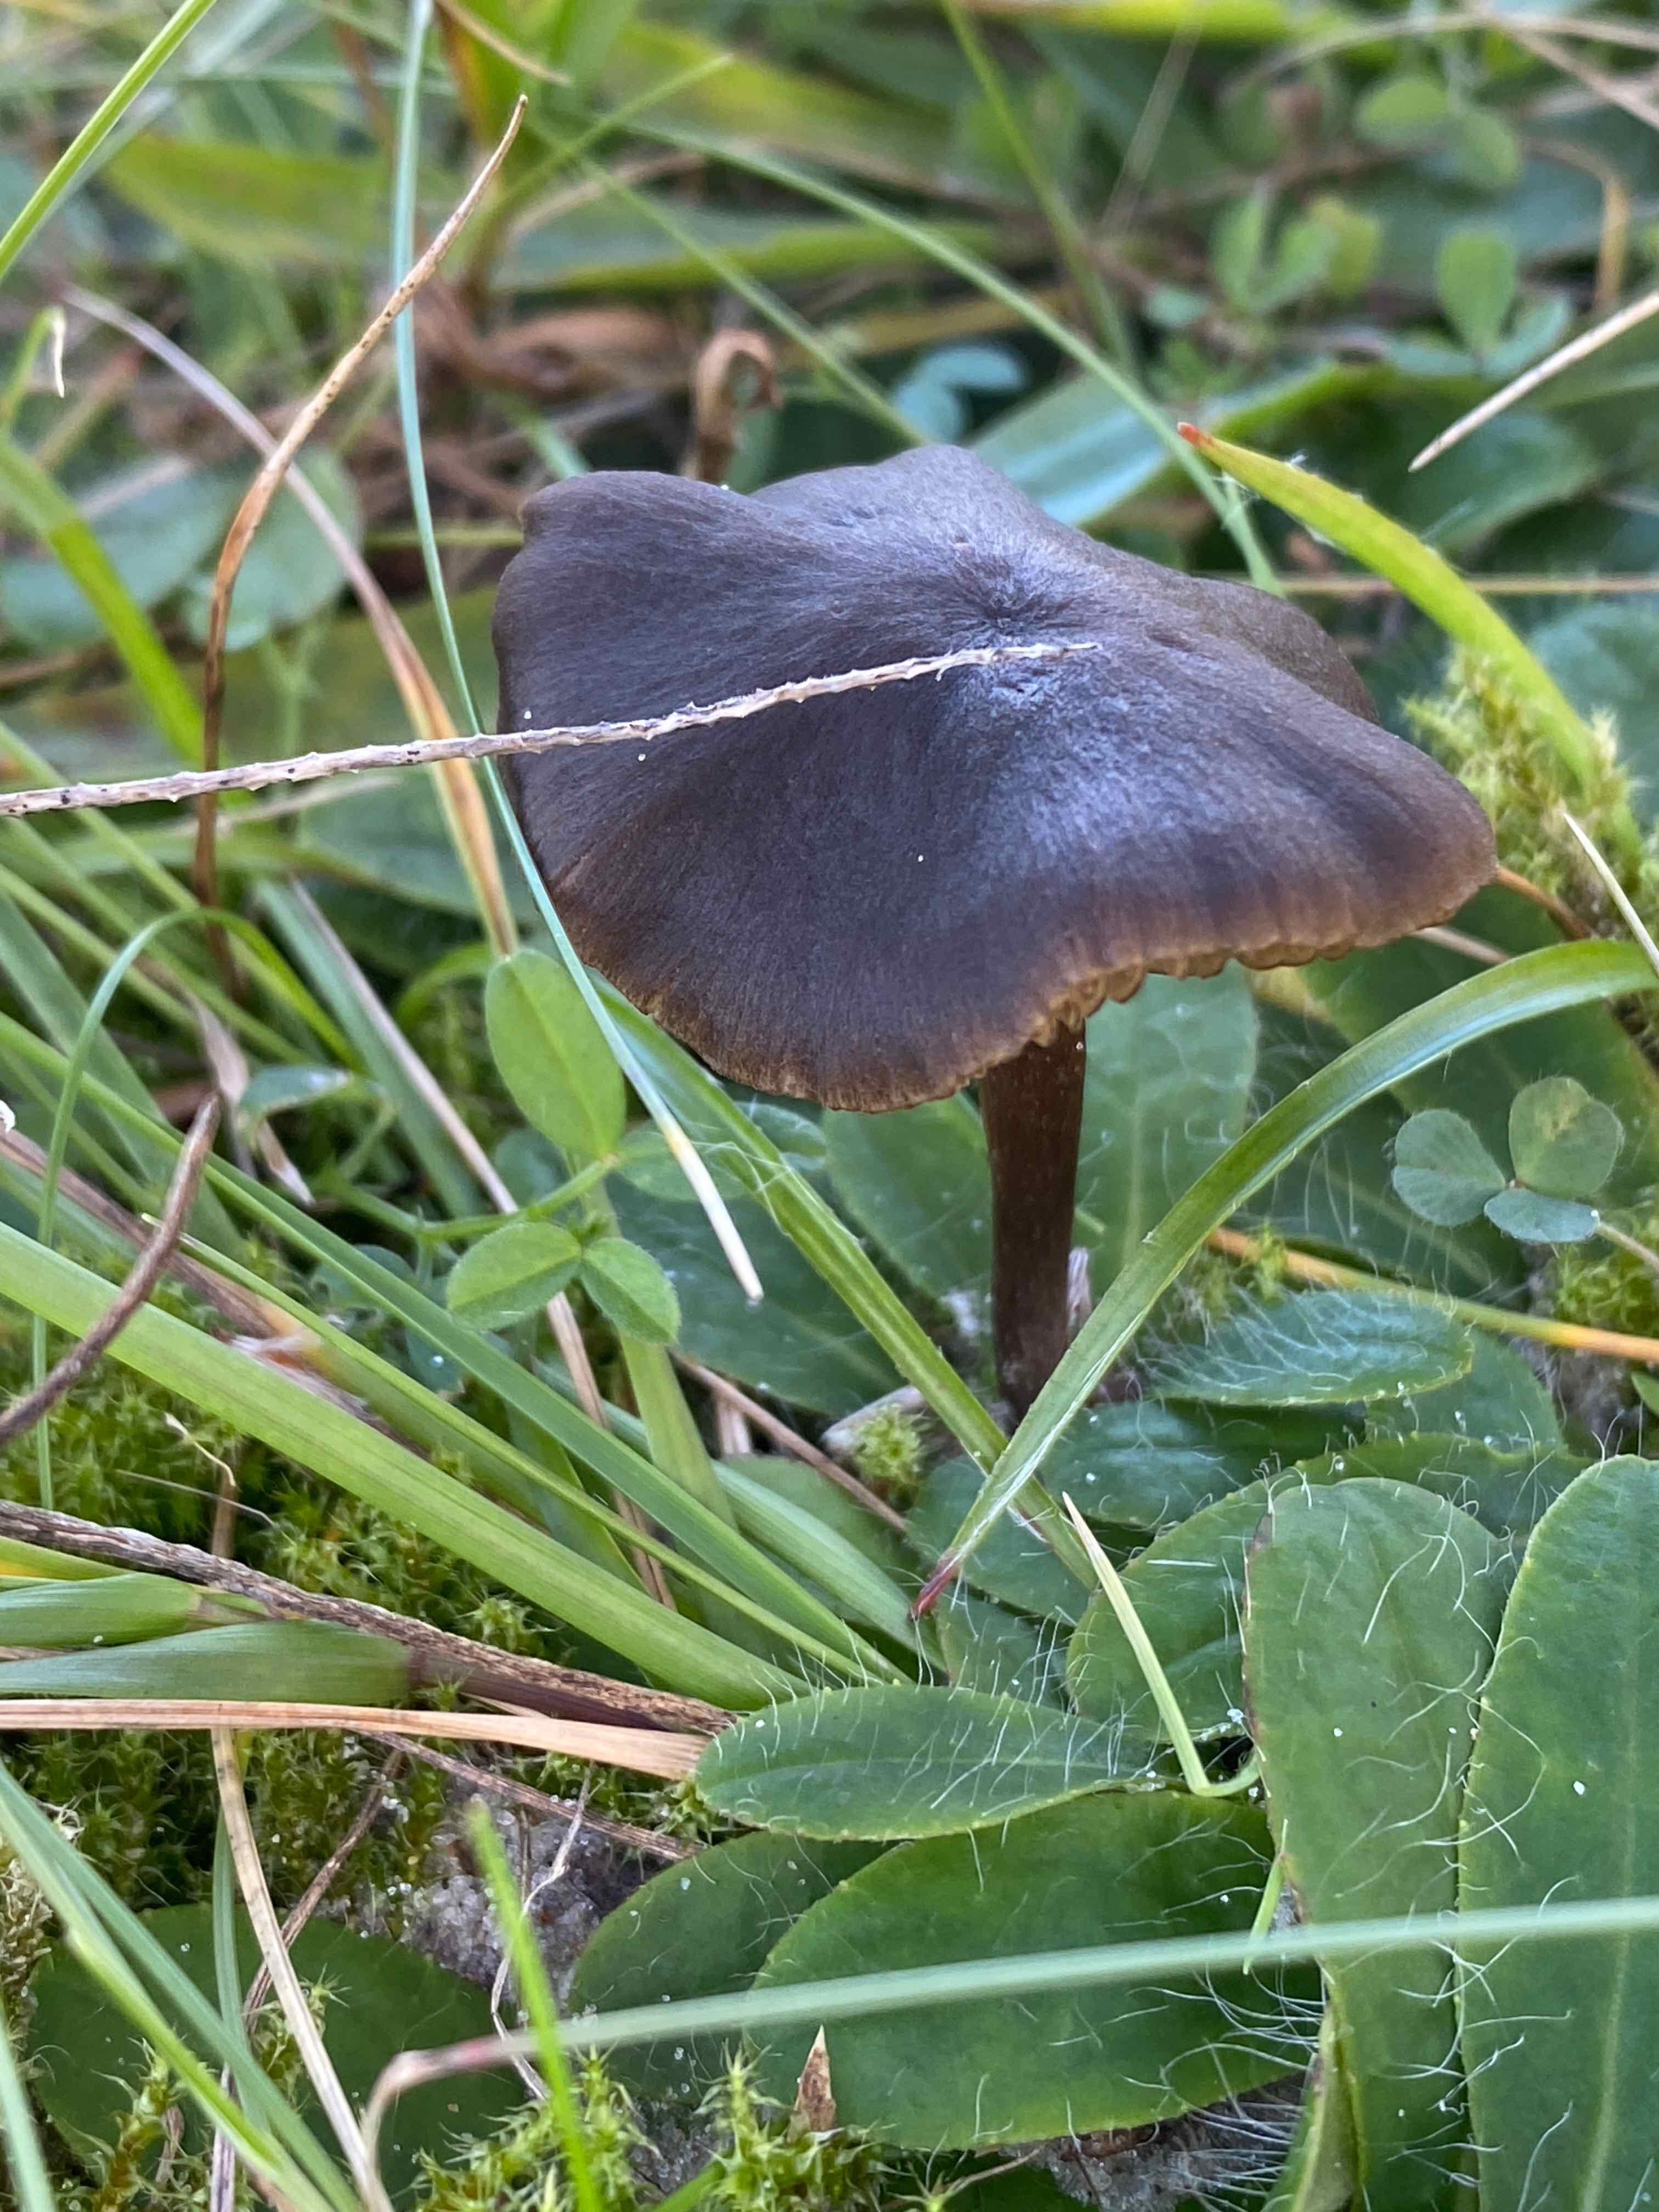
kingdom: Fungi
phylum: Basidiomycota
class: Agaricomycetes
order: Agaricales
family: Entolomataceae
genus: Entoloma
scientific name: Entoloma
